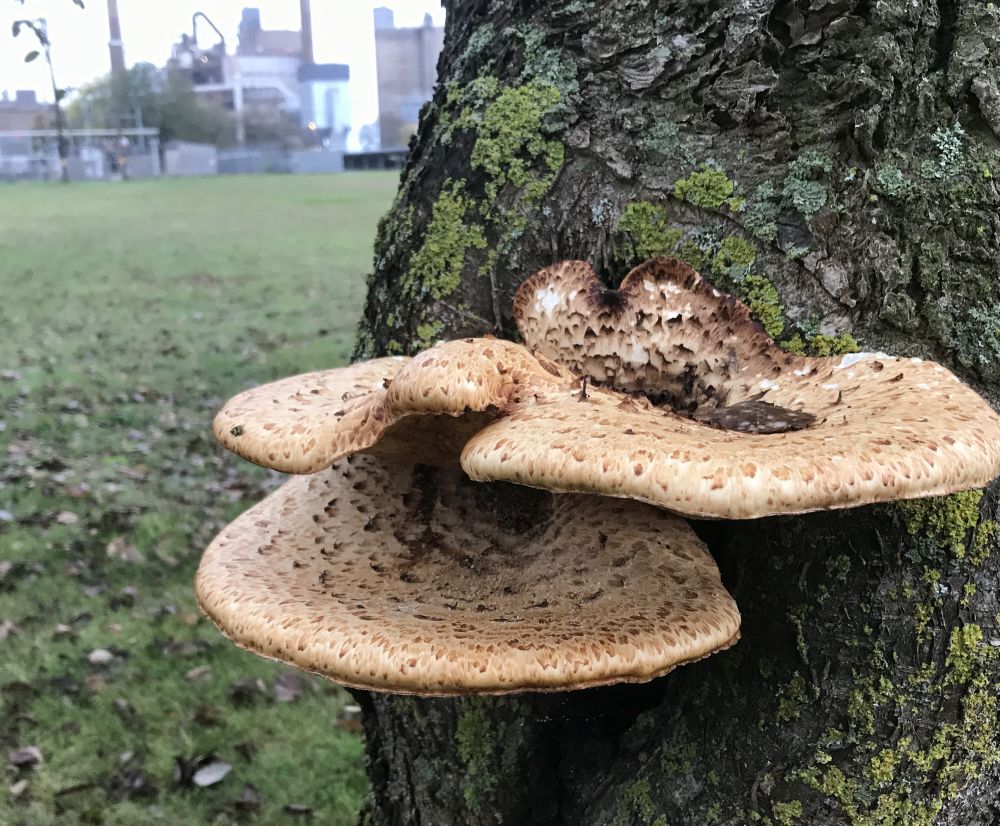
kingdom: Fungi
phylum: Basidiomycota
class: Agaricomycetes
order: Polyporales
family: Polyporaceae
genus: Cerioporus
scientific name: Cerioporus squamosus
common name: skællet stilkporesvamp
